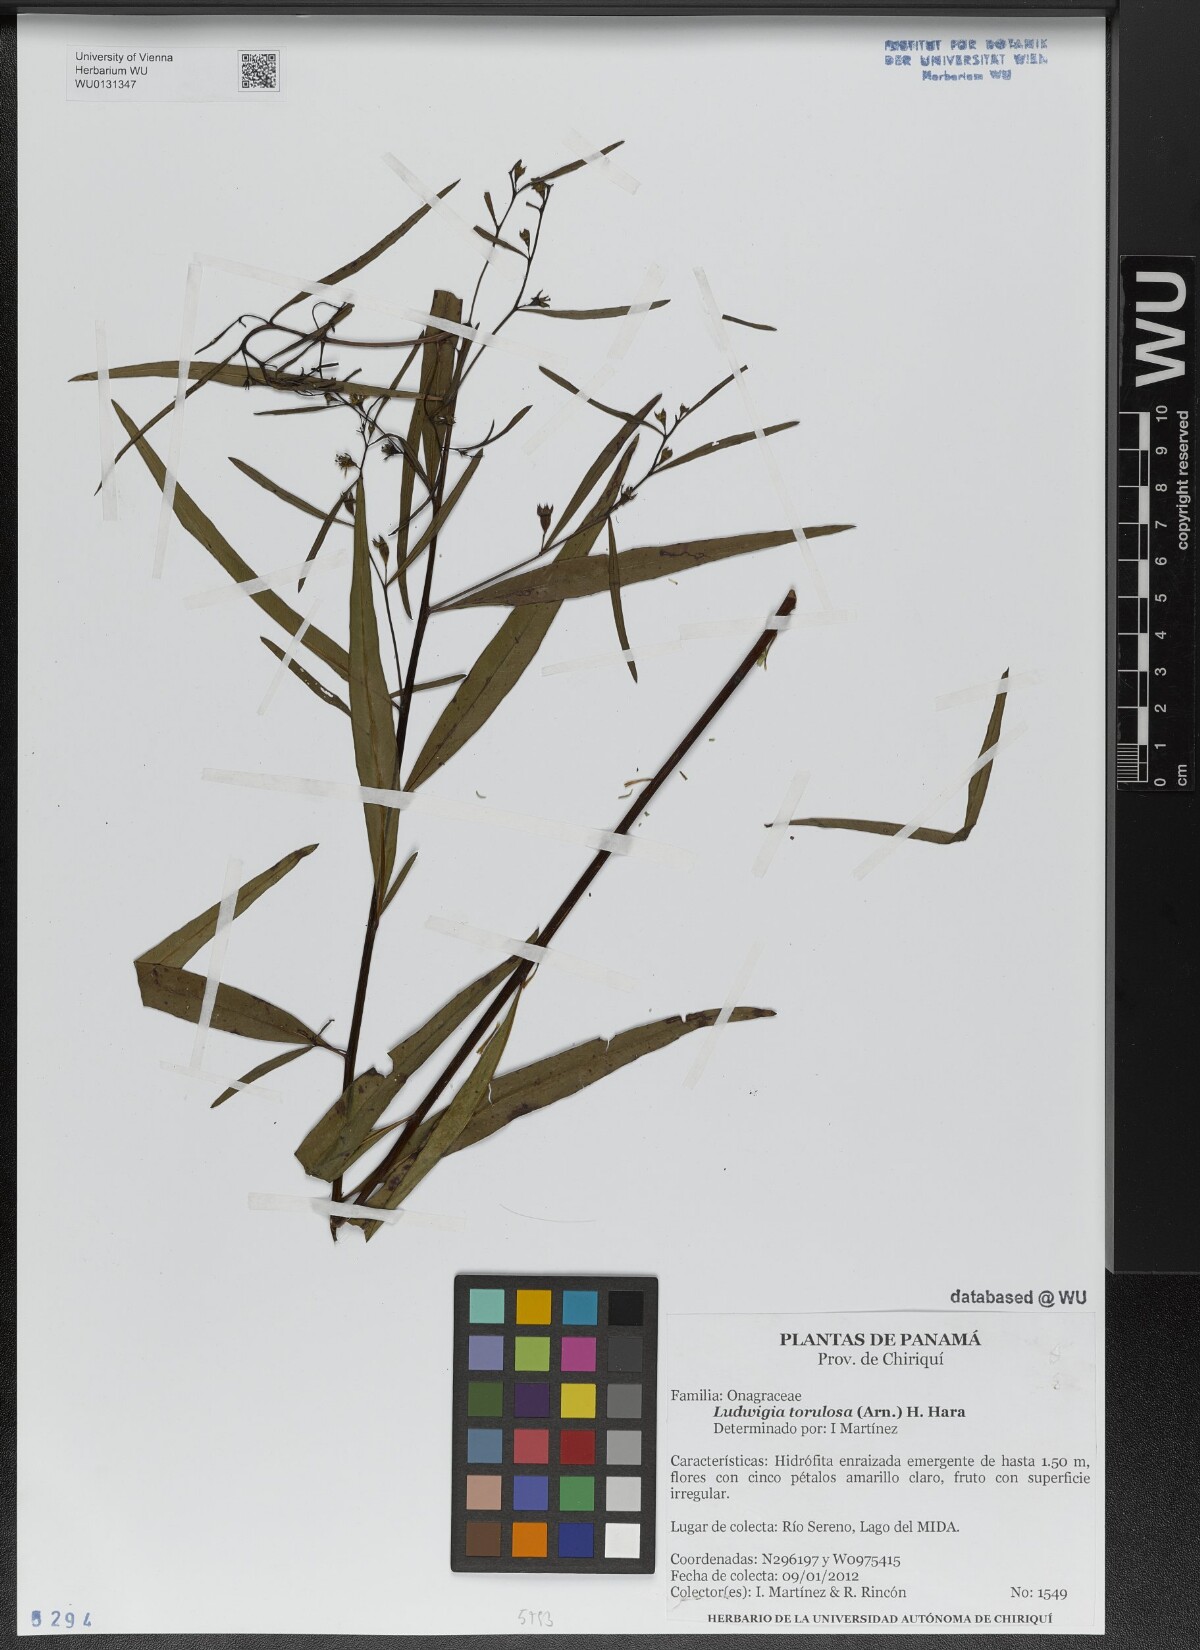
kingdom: Plantae
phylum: Tracheophyta
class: Magnoliopsida
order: Myrtales
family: Onagraceae
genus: Ludwigia
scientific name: Ludwigia torulosa
